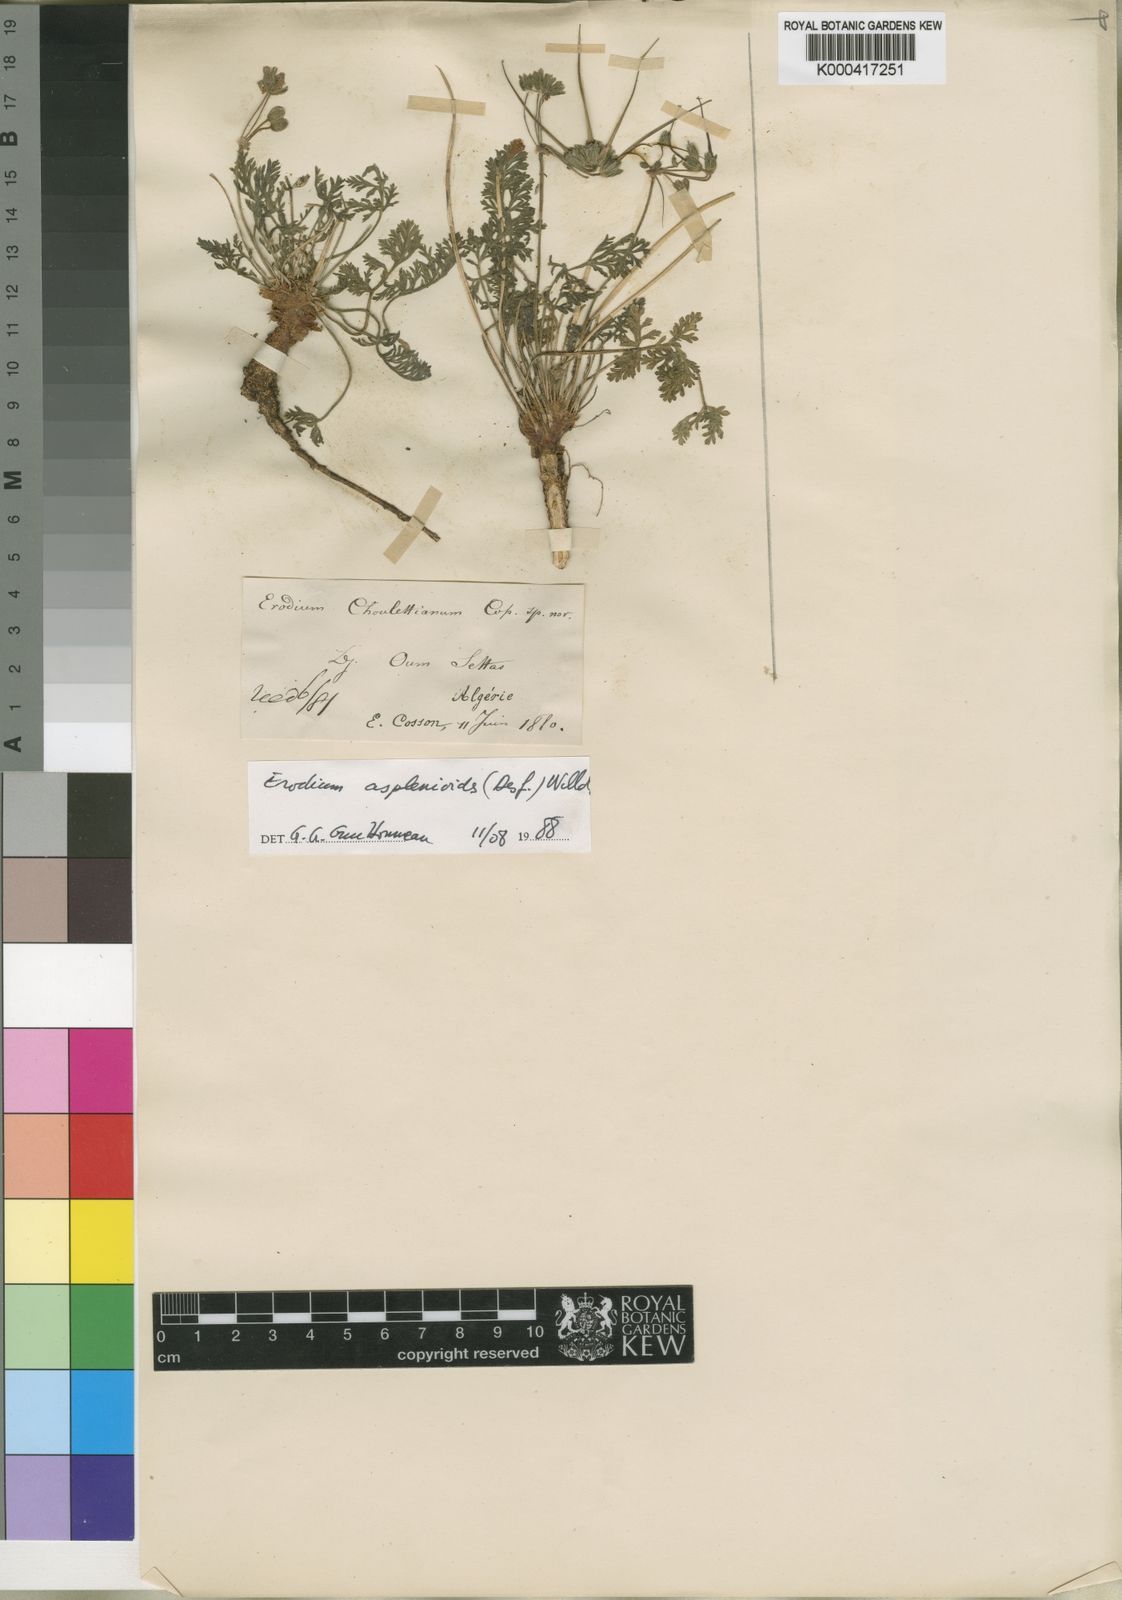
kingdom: Plantae
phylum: Tracheophyta
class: Magnoliopsida
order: Geraniales
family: Geraniaceae
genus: Erodium
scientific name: Erodium
